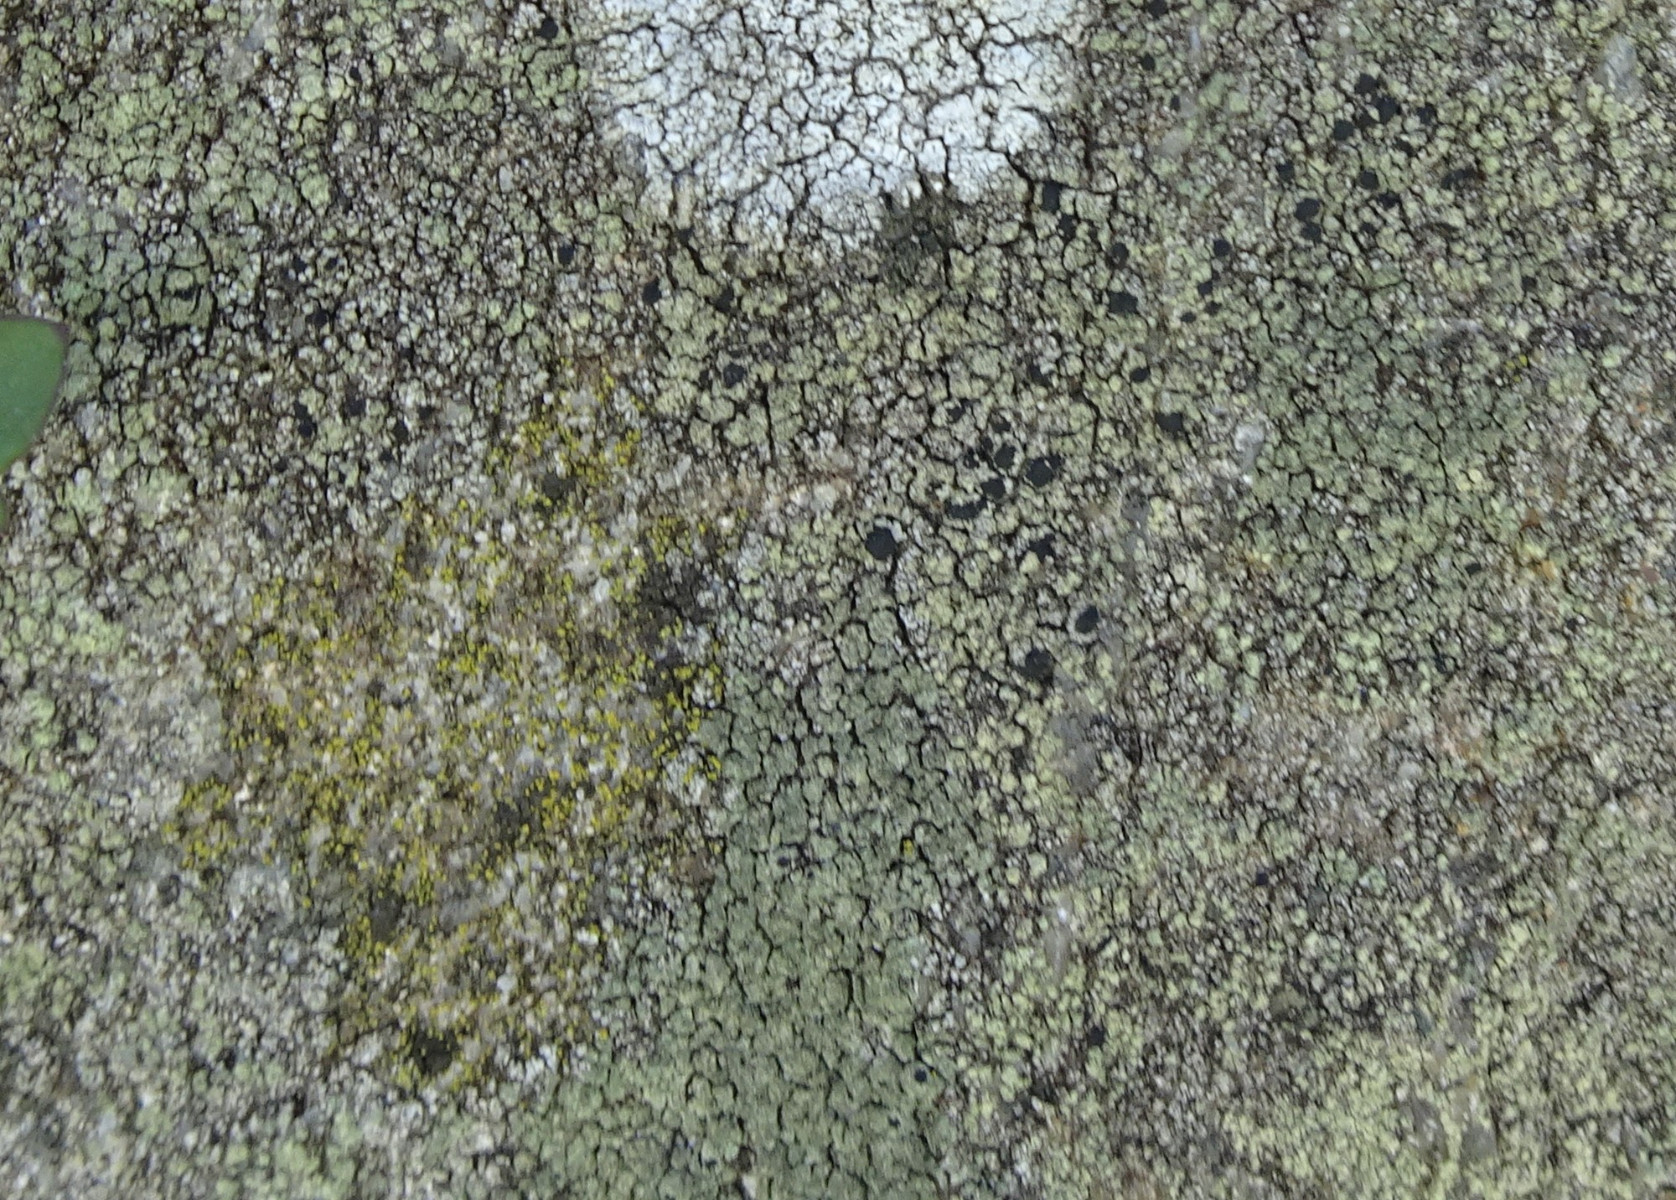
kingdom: Fungi
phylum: Ascomycota
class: Lecanoromycetes
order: Lecanorales
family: Lecanoraceae
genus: Lecidella
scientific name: Lecidella scabra
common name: skurvet skivelav
